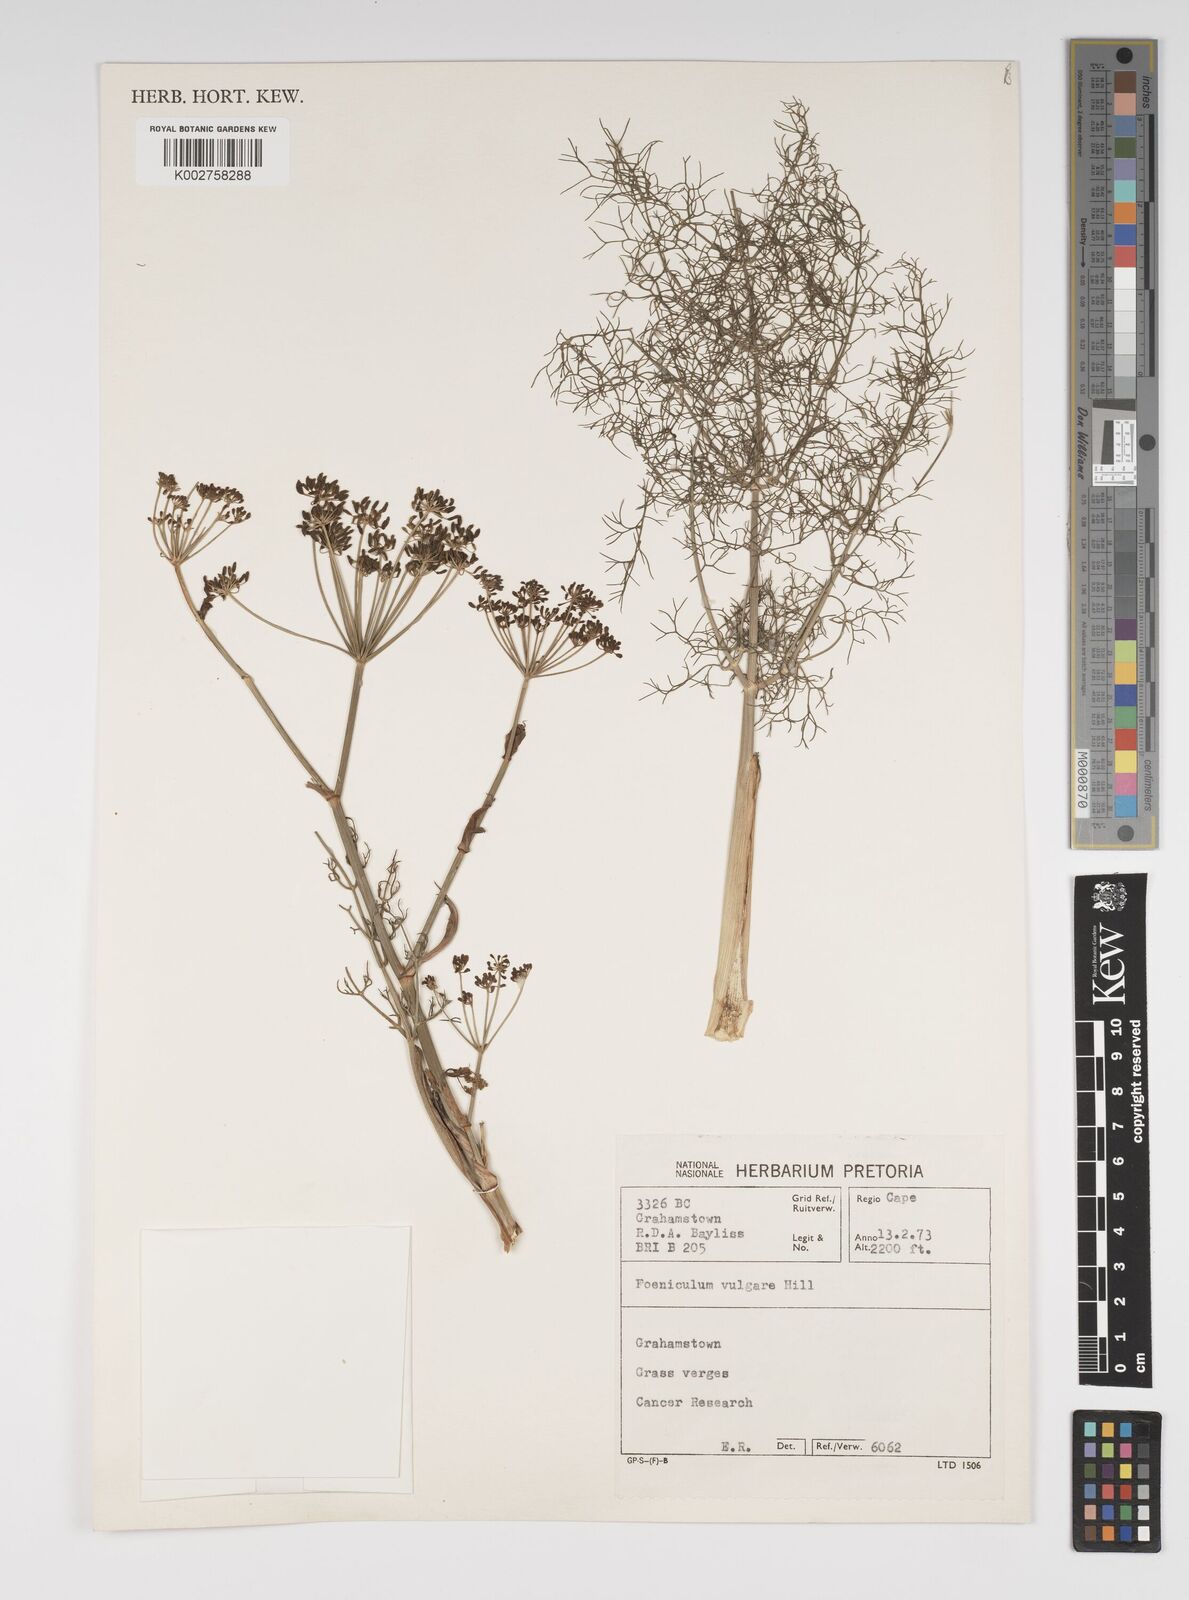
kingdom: Plantae
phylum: Tracheophyta
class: Magnoliopsida
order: Apiales
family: Apiaceae
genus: Foeniculum
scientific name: Foeniculum vulgare
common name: Fennel
